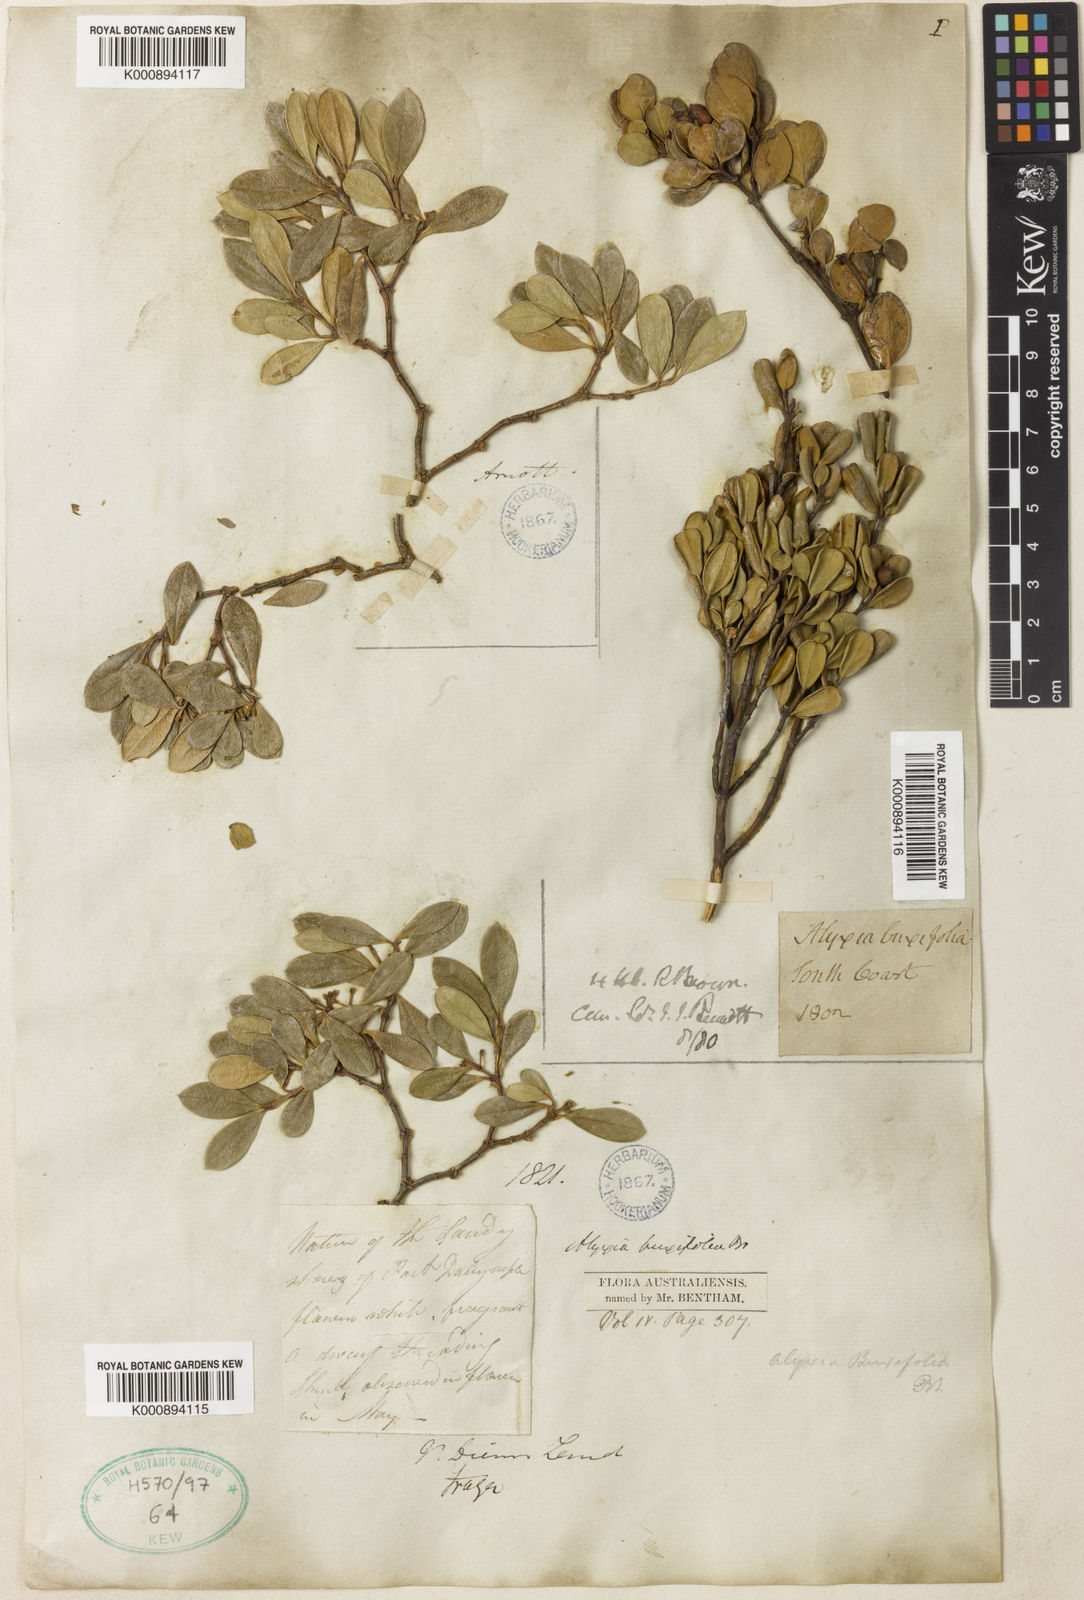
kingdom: Plantae
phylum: Tracheophyta
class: Magnoliopsida
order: Gentianales
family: Apocynaceae
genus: Alyxia
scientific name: Alyxia buxifolia
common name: Dysentery-bush
